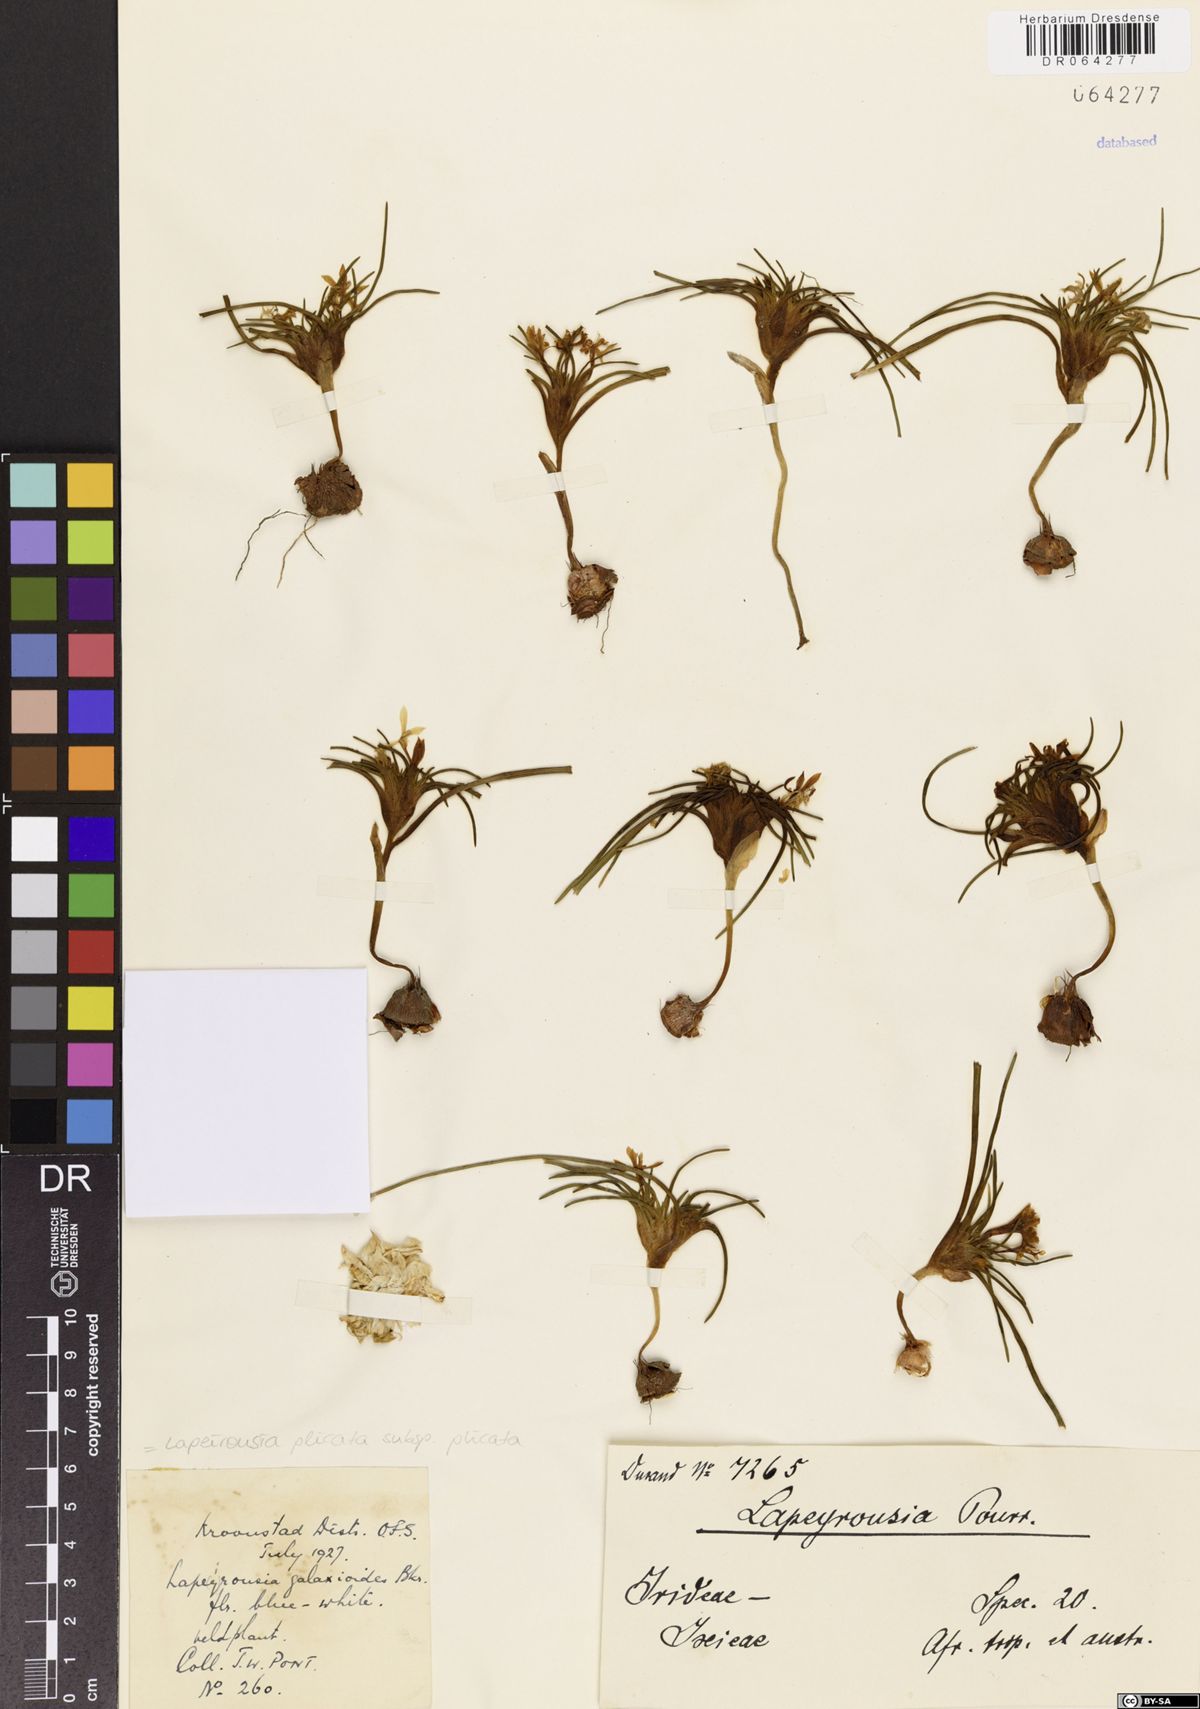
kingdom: Plantae
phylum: Tracheophyta
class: Liliopsida
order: Asparagales
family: Iridaceae
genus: Lapeirousia
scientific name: Lapeirousia plicata
